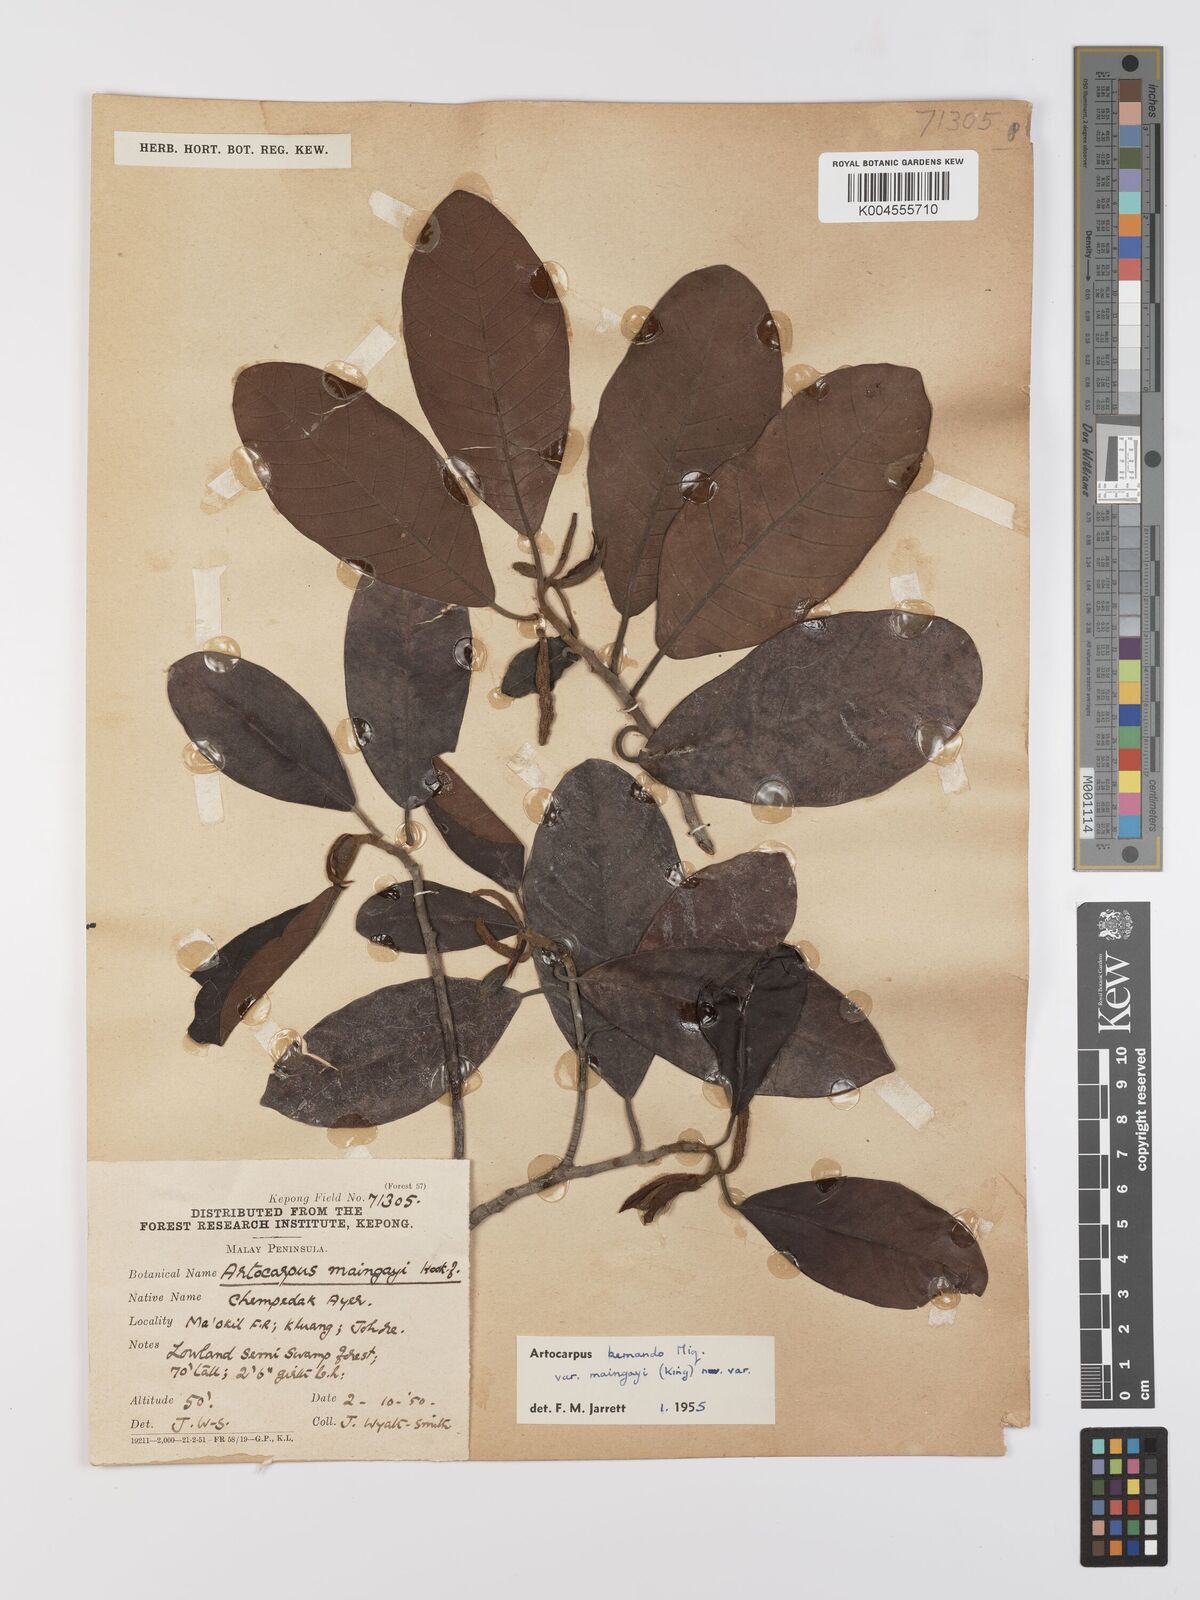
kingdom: Plantae
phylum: Tracheophyta
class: Magnoliopsida
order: Rosales
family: Moraceae
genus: Artocarpus
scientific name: Artocarpus kemando
